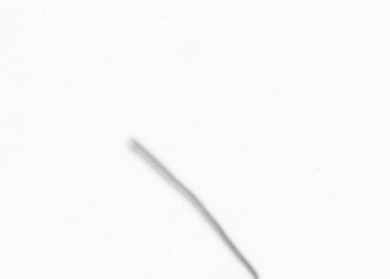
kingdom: Chromista
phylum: Ochrophyta
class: Bacillariophyceae
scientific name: Bacillariophyceae
